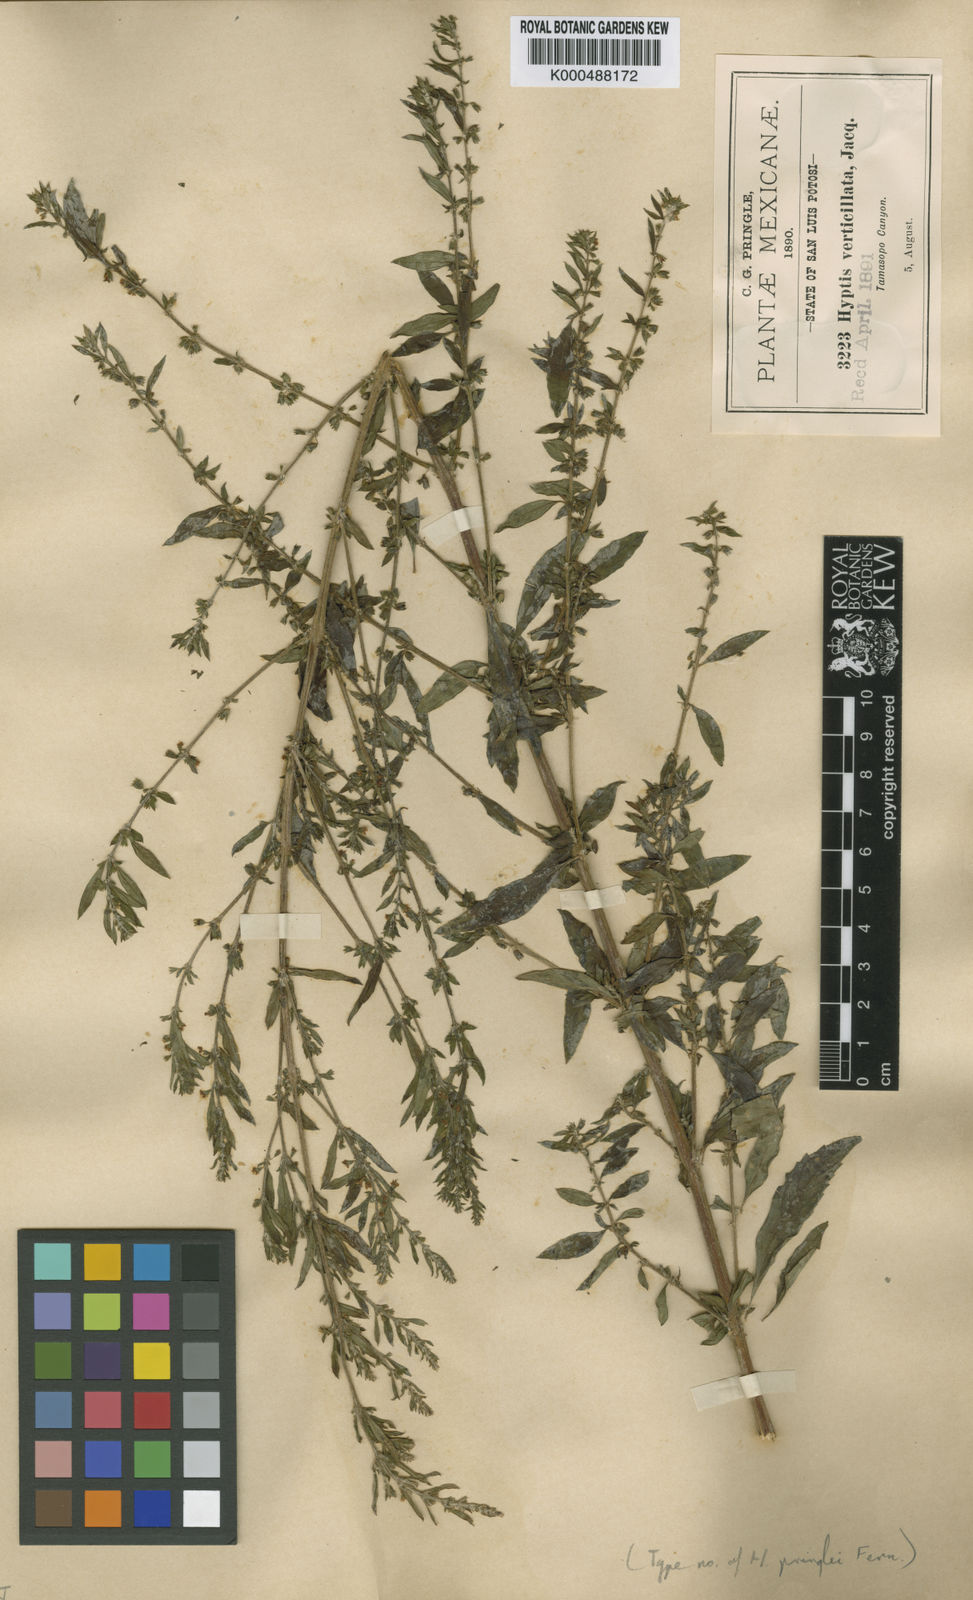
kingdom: Plantae
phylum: Tracheophyta
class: Magnoliopsida
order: Lamiales
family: Lamiaceae
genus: Condea
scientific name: Condea verticillata
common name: John charles
